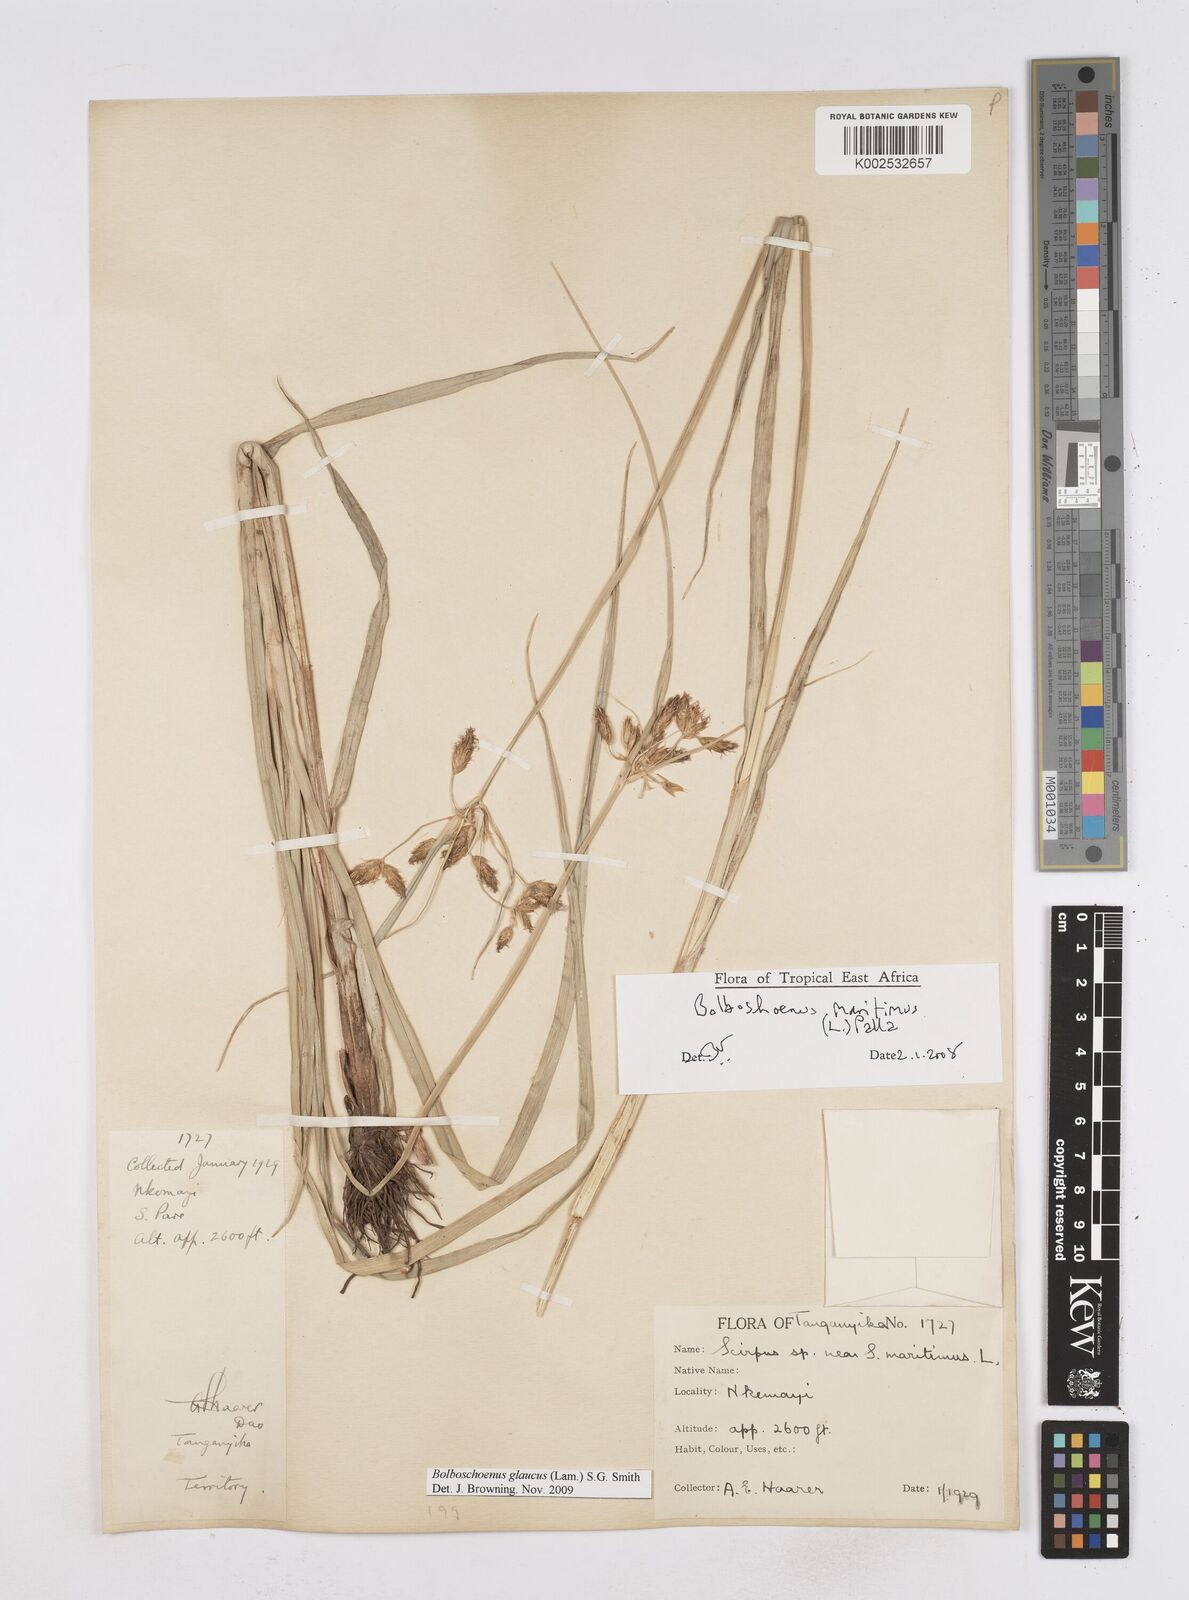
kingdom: Plantae
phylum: Tracheophyta
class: Liliopsida
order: Poales
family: Cyperaceae
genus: Bolboschoenus
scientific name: Bolboschoenus glaucus
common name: Tuberous bulrush
